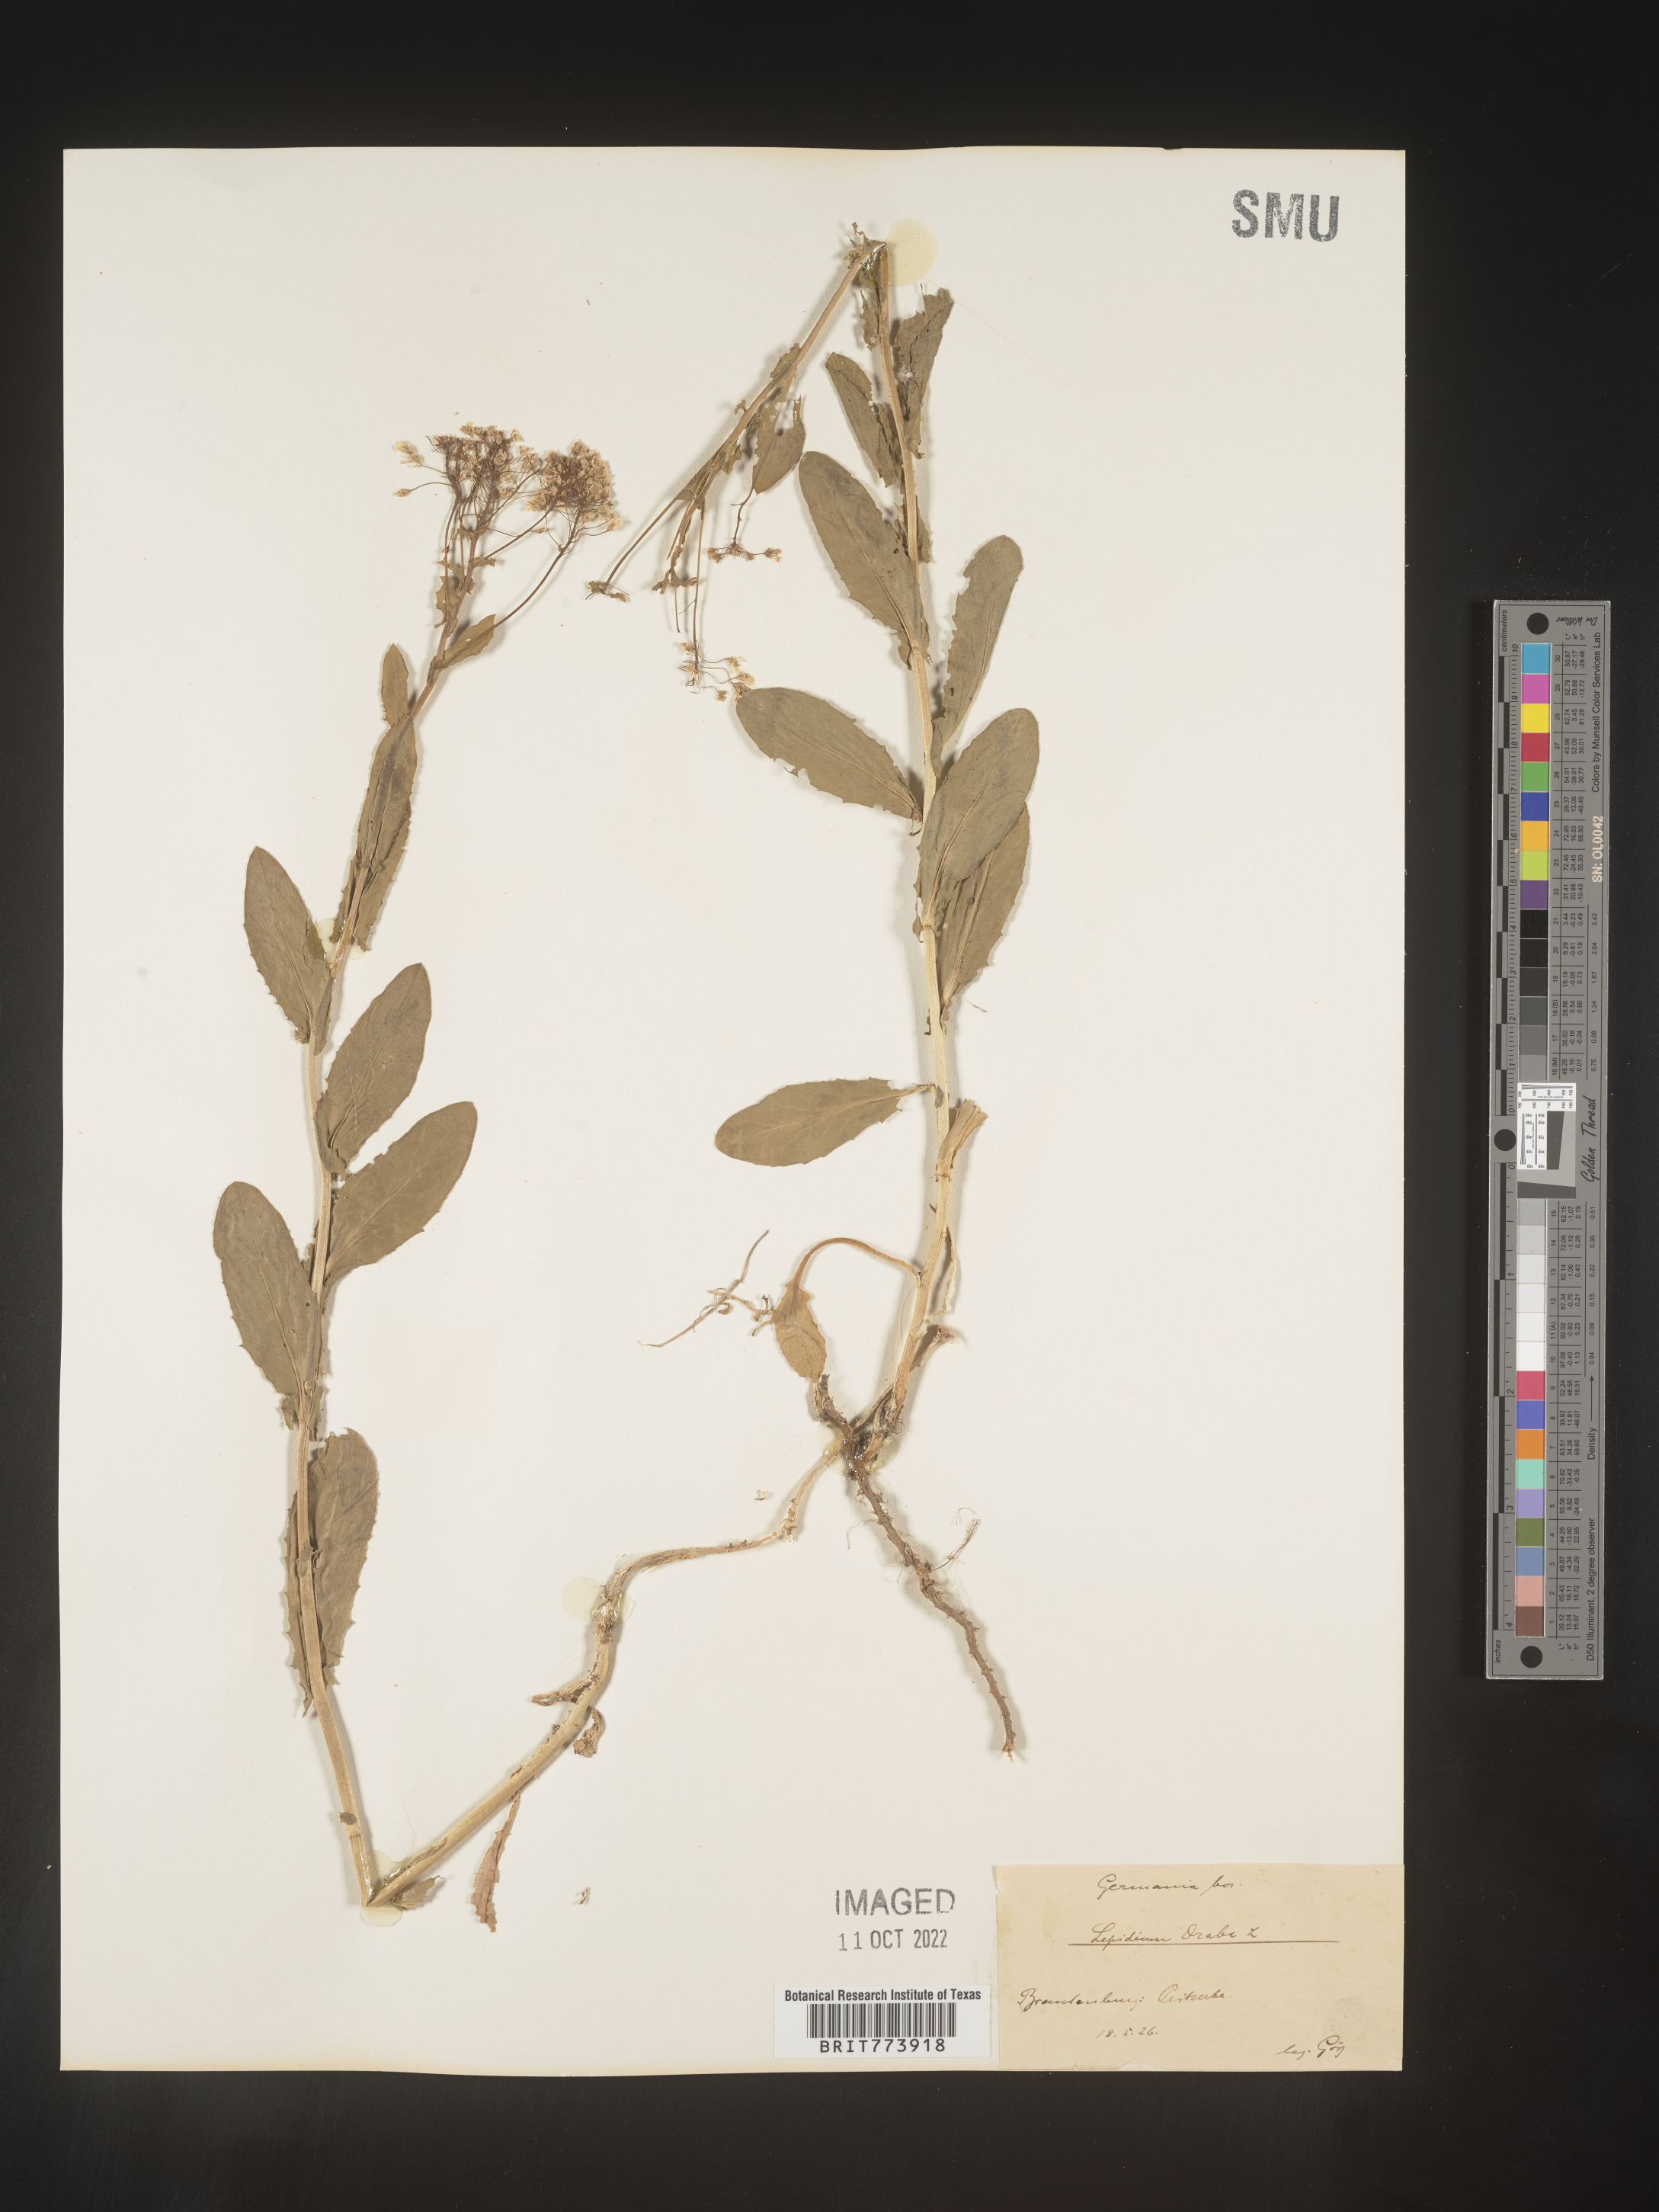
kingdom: Plantae
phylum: Tracheophyta
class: Magnoliopsida
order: Brassicales
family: Brassicaceae
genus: Lepidium
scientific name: Lepidium
